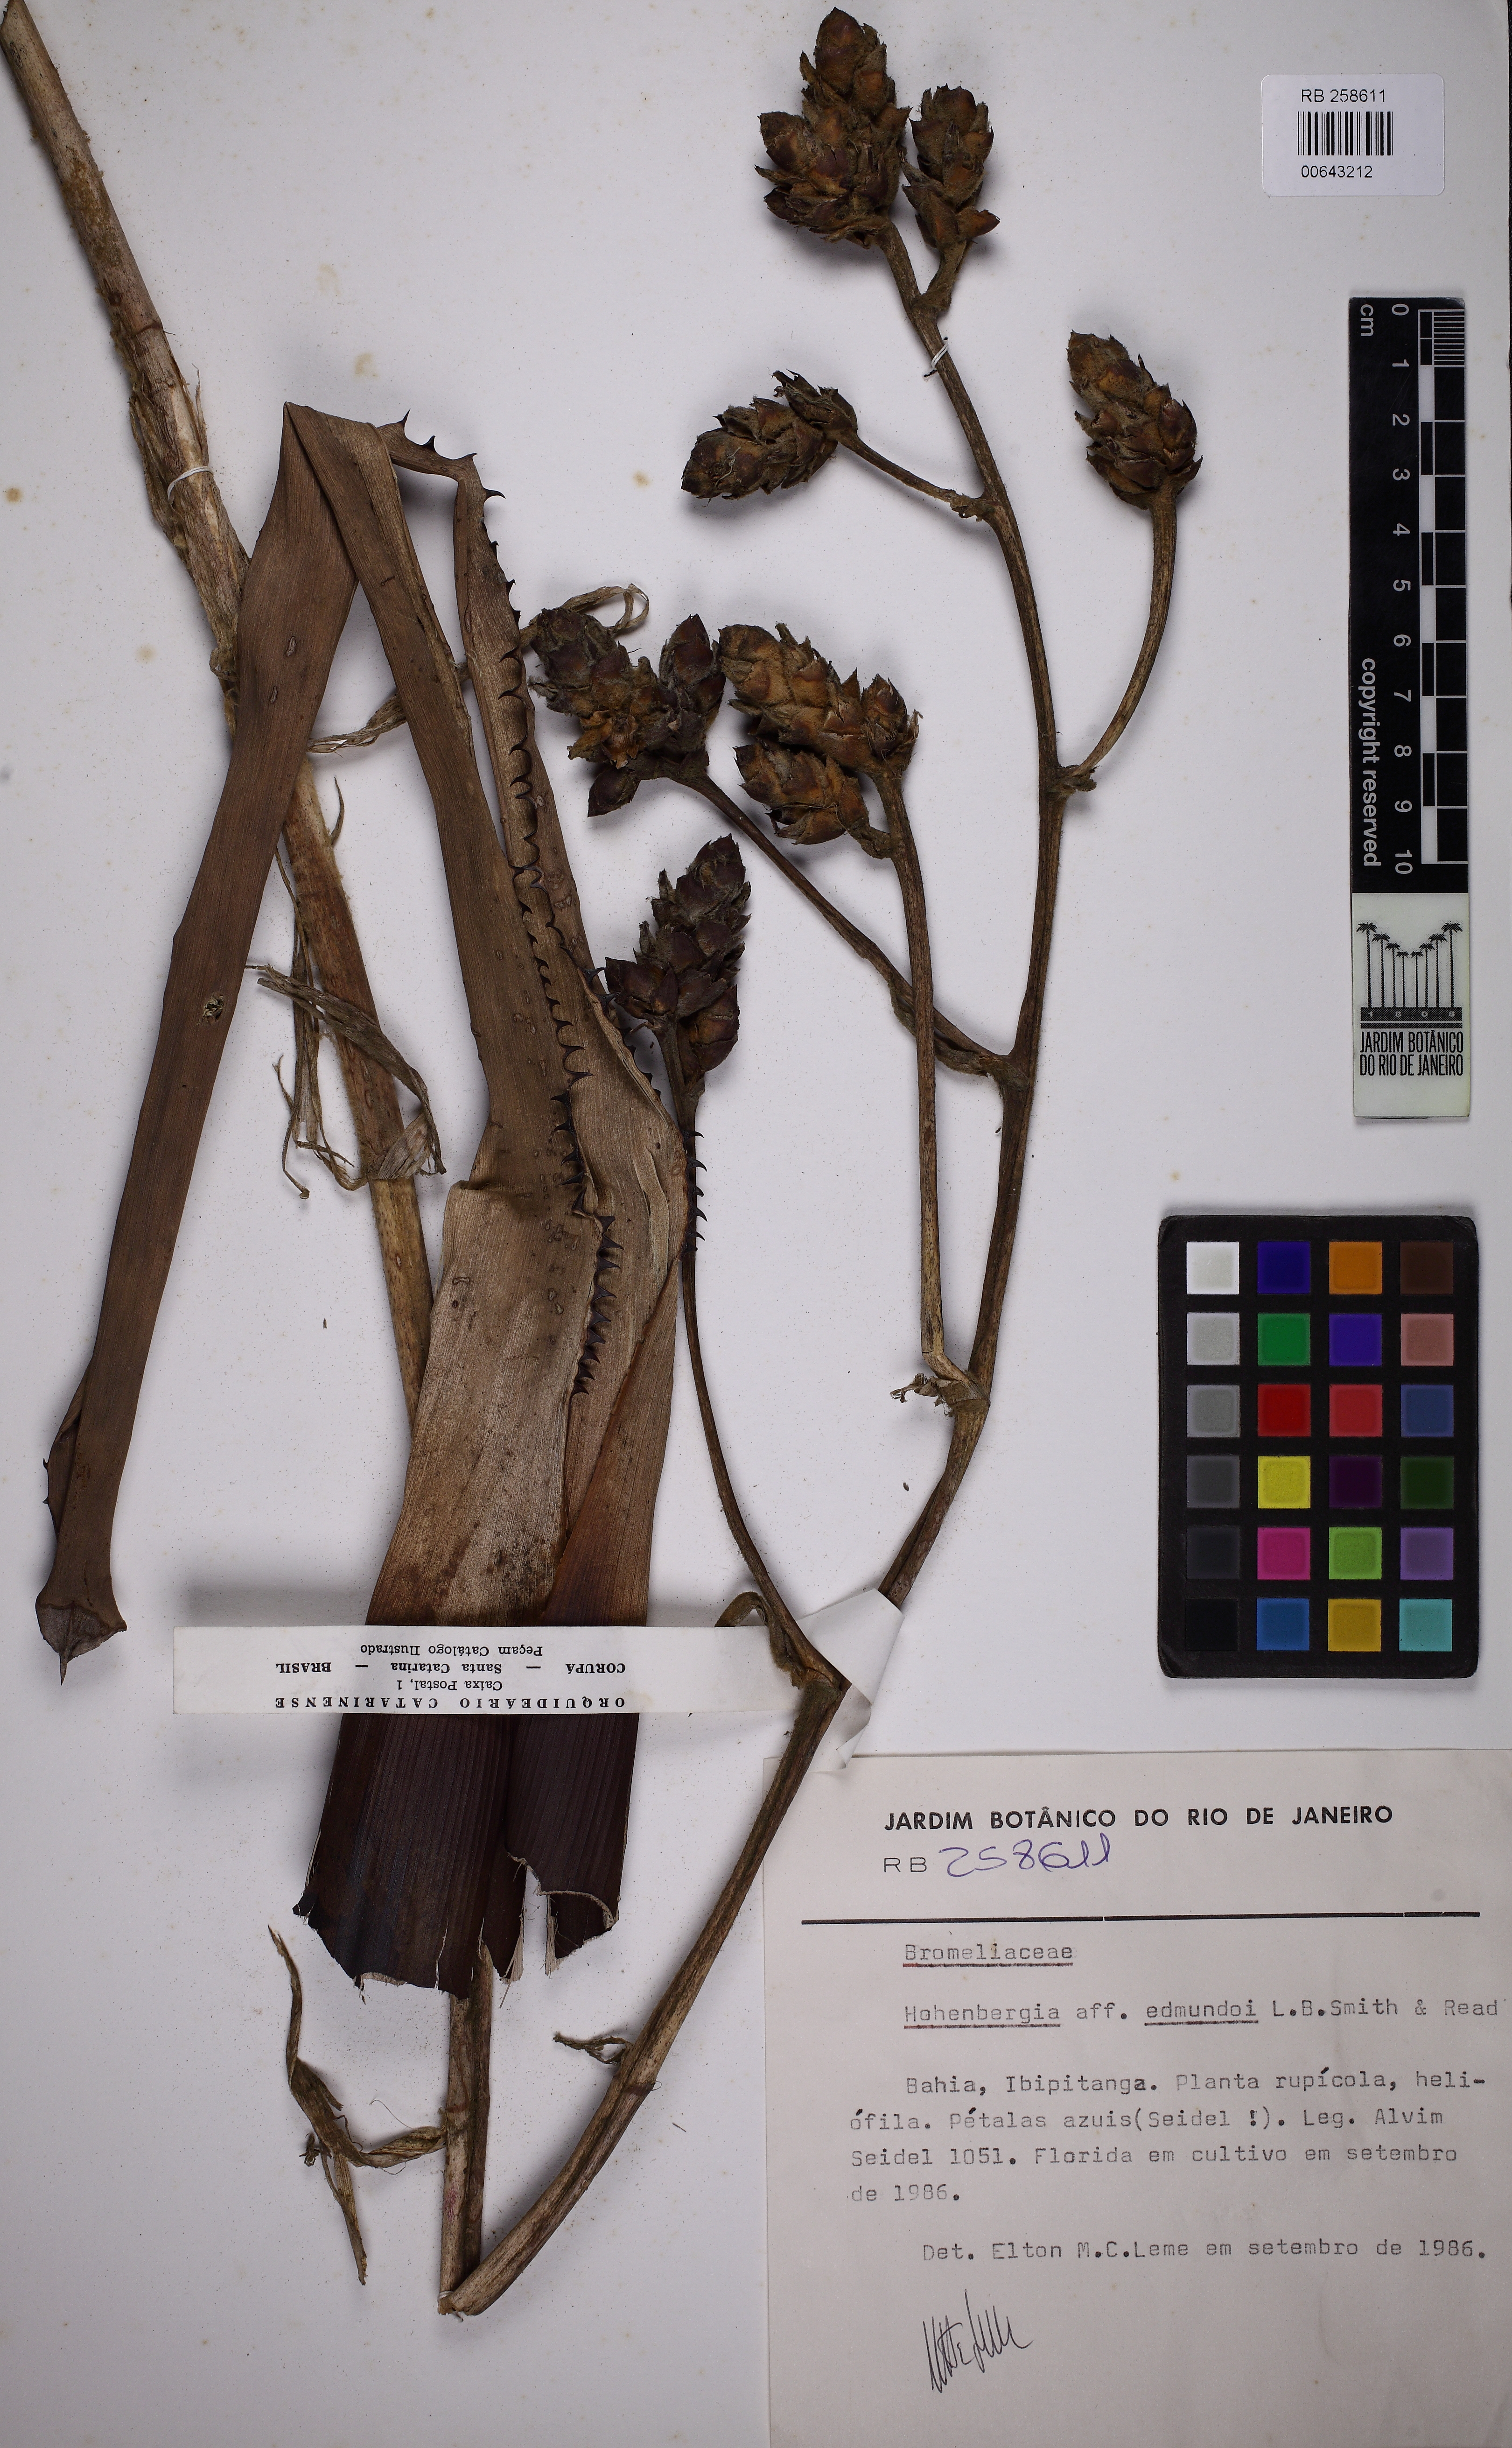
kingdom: Plantae
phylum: Tracheophyta
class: Liliopsida
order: Poales
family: Bromeliaceae
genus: Hohenbergia
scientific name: Hohenbergia edmundoi
